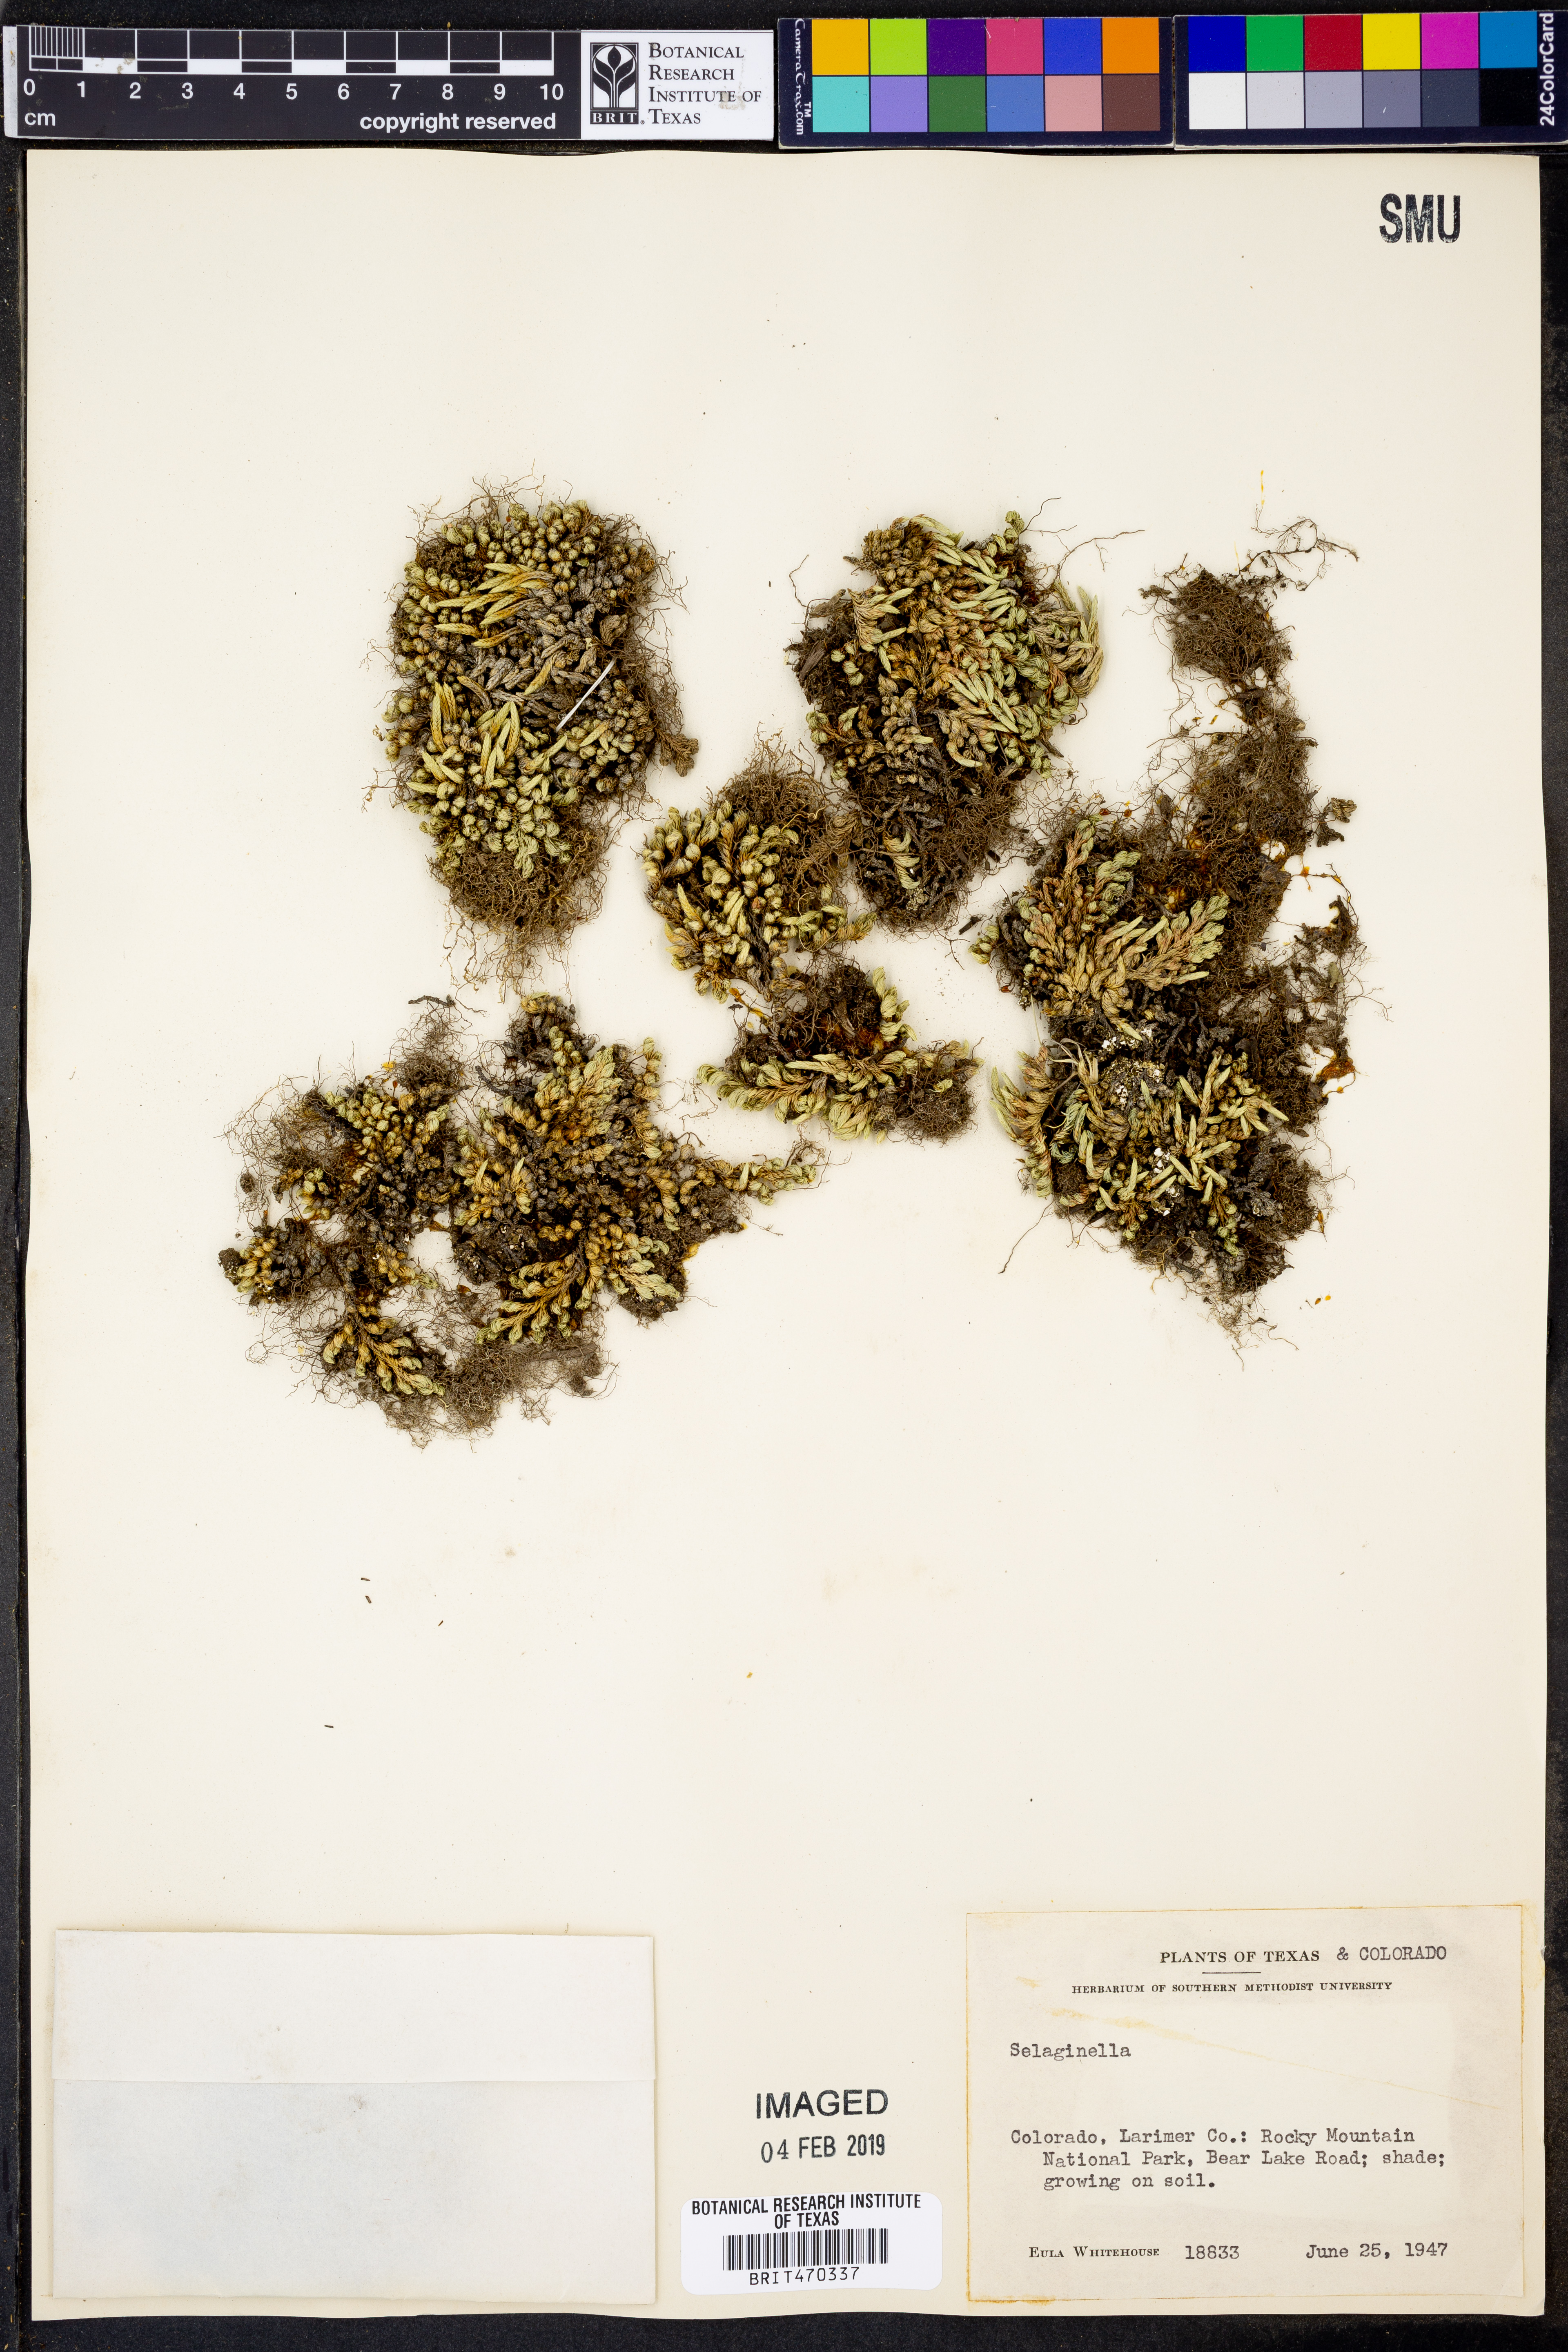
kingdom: Plantae
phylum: Tracheophyta
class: Lycopodiopsida
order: Selaginellales
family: Selaginellaceae
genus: Selaginella
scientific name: Selaginella
